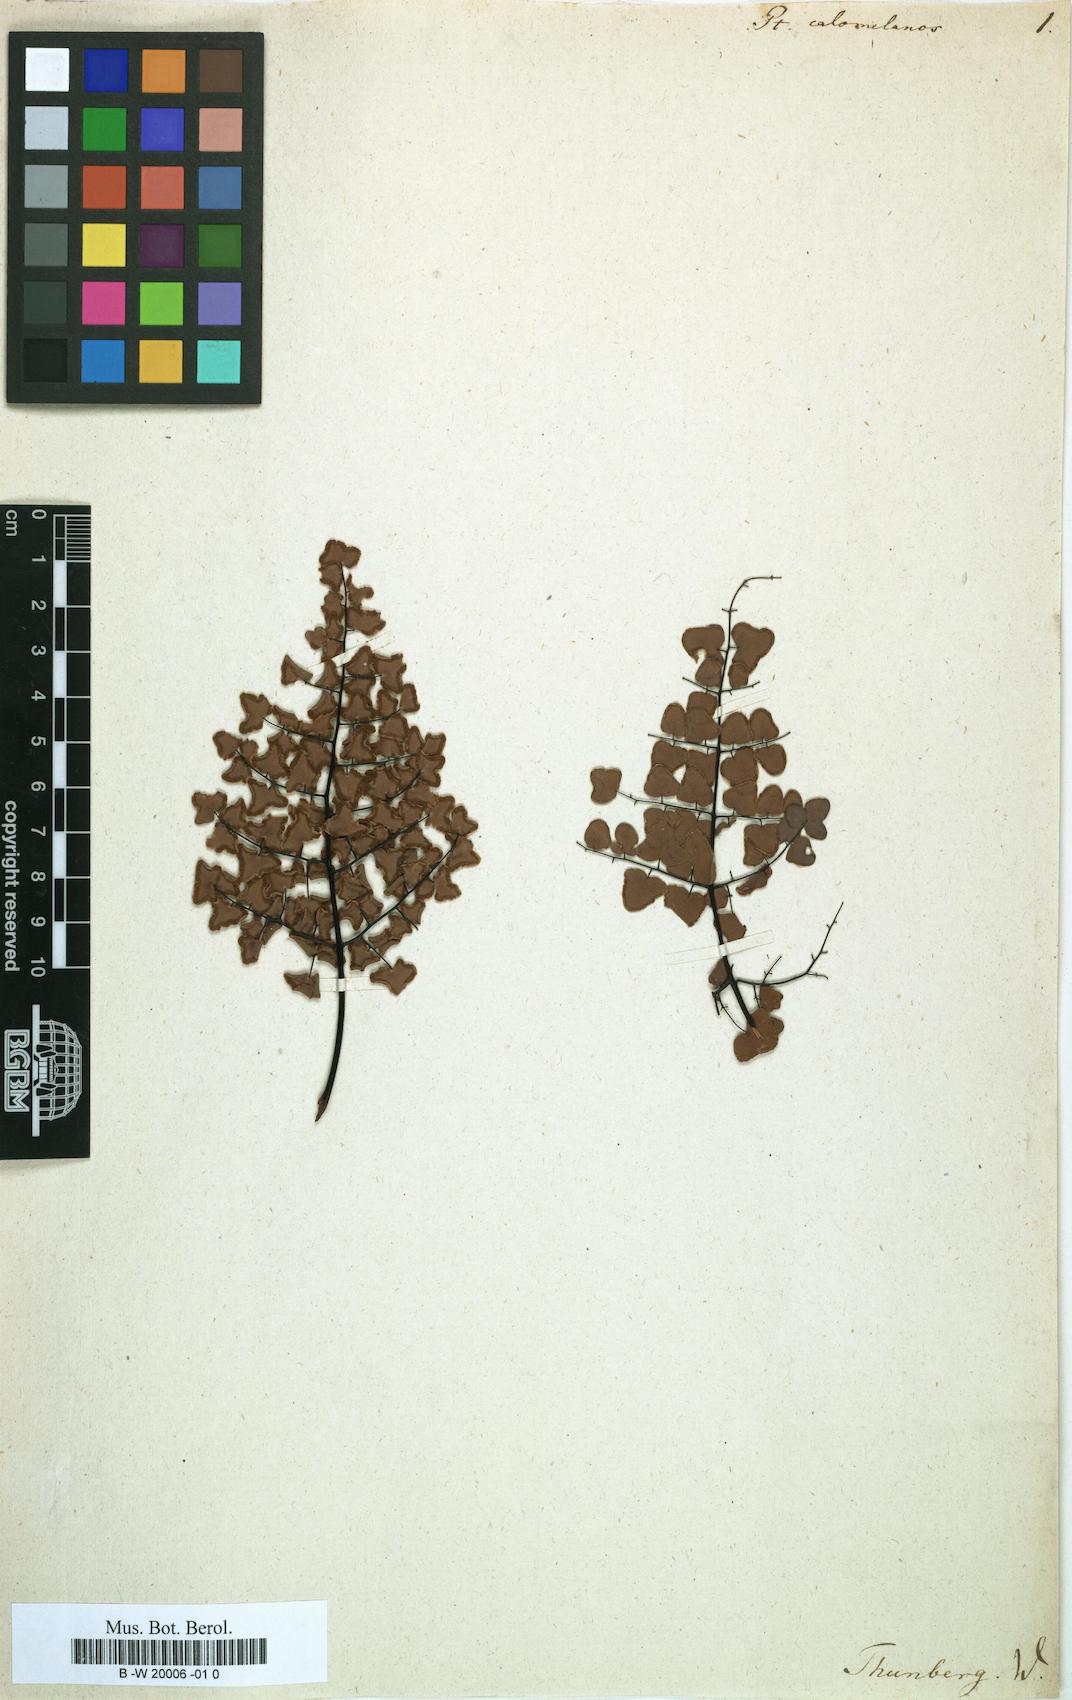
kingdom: Plantae
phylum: Tracheophyta
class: Polypodiopsida
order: Polypodiales
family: Pteridaceae
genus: Pellaea
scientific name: Pellaea calomelanos
